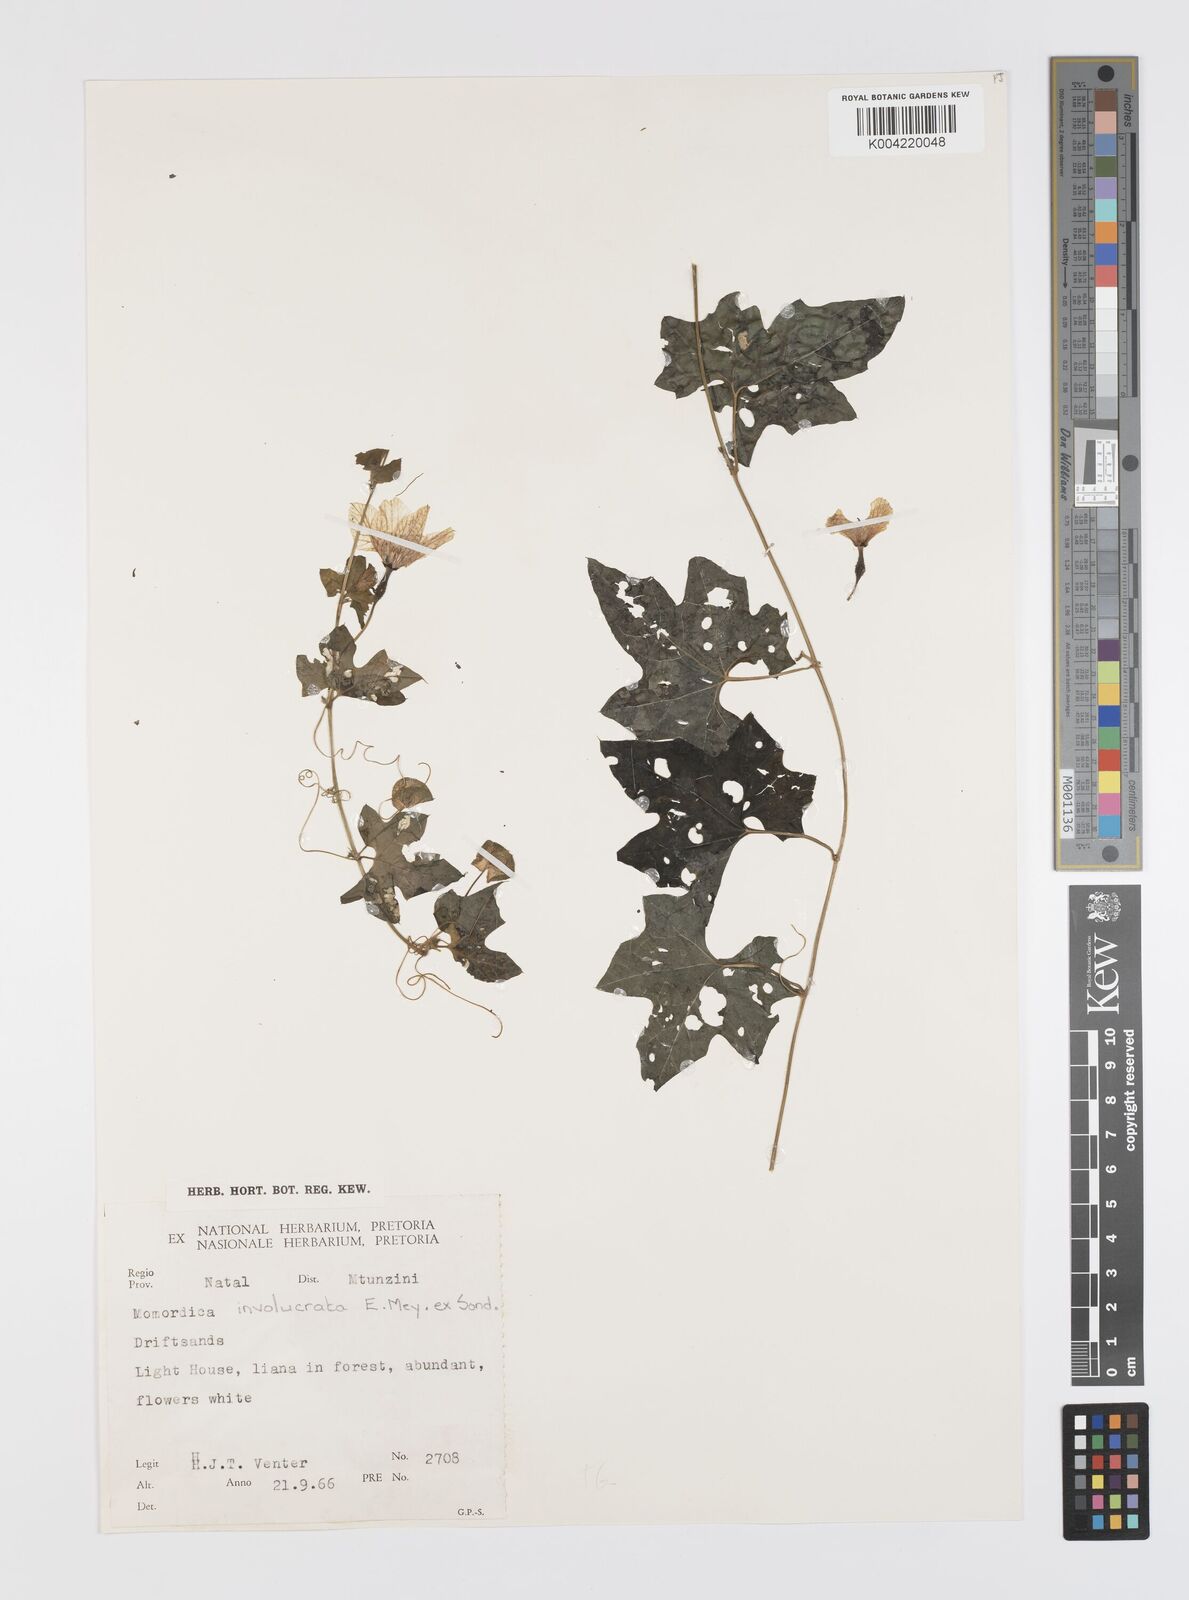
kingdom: Plantae
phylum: Tracheophyta
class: Magnoliopsida
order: Cucurbitales
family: Cucurbitaceae
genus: Momordica
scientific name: Momordica balsamina
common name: Southern balsampear
